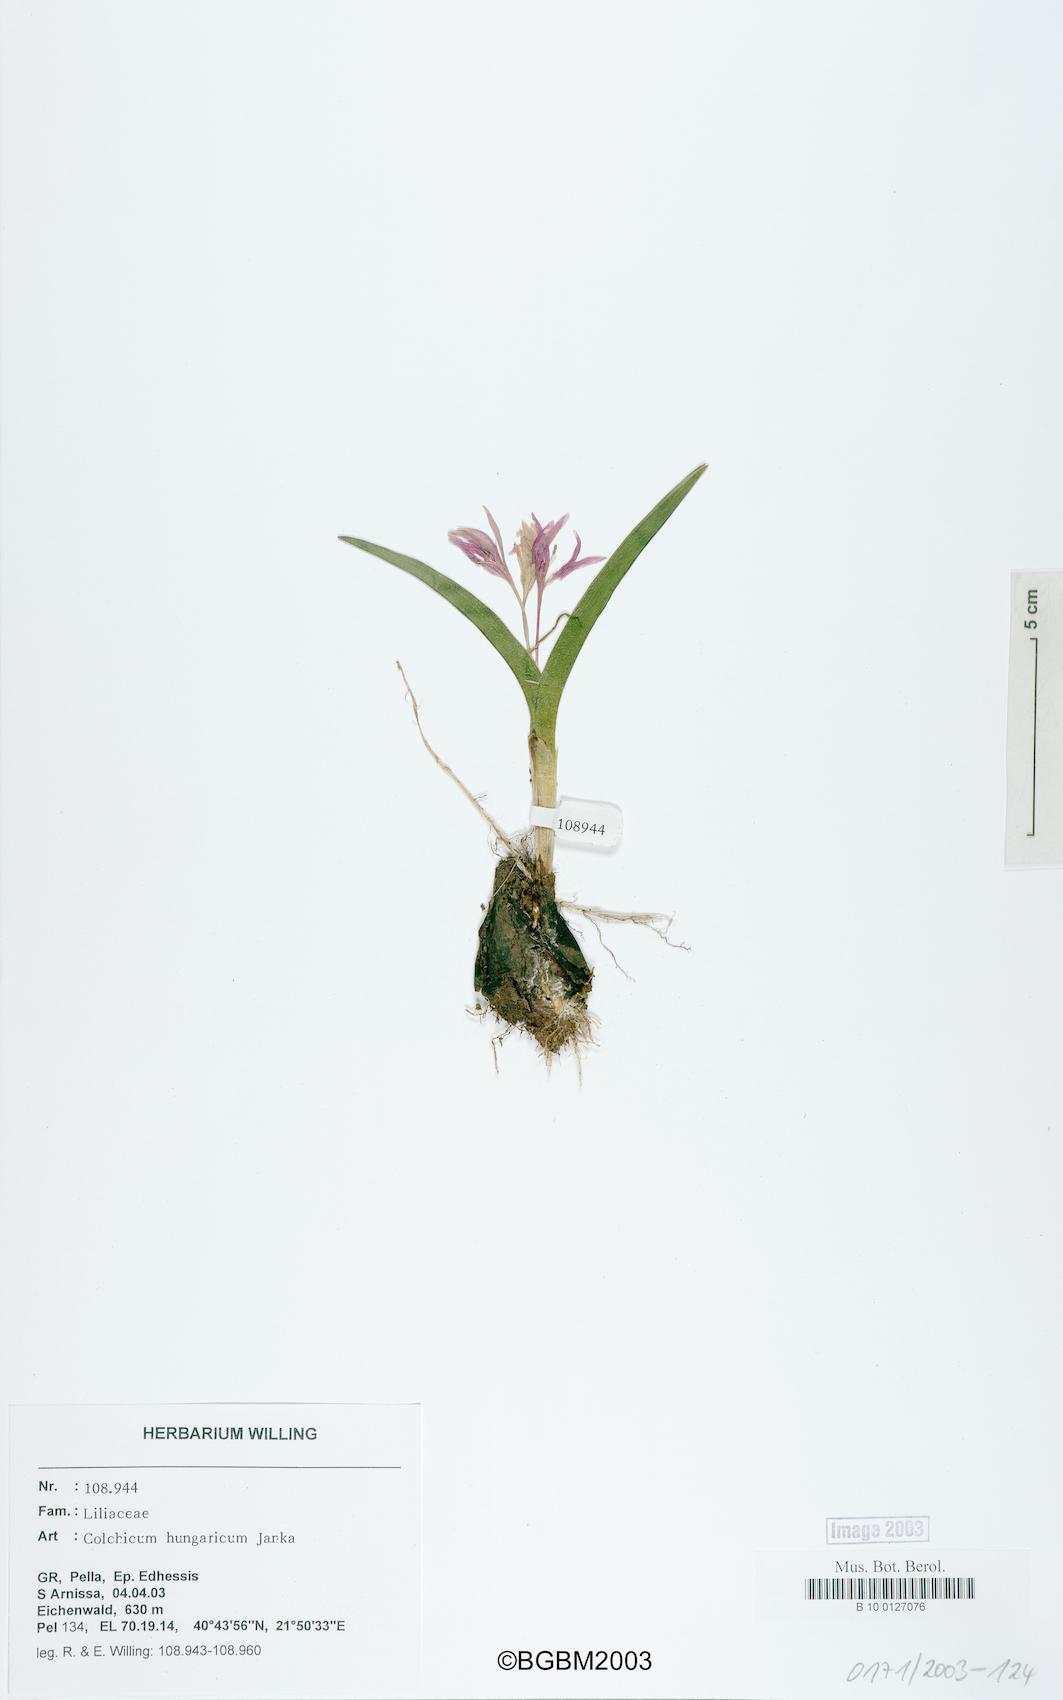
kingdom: Plantae
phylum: Tracheophyta
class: Liliopsida
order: Liliales
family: Colchicaceae
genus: Colchicum
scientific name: Colchicum hungaricum
